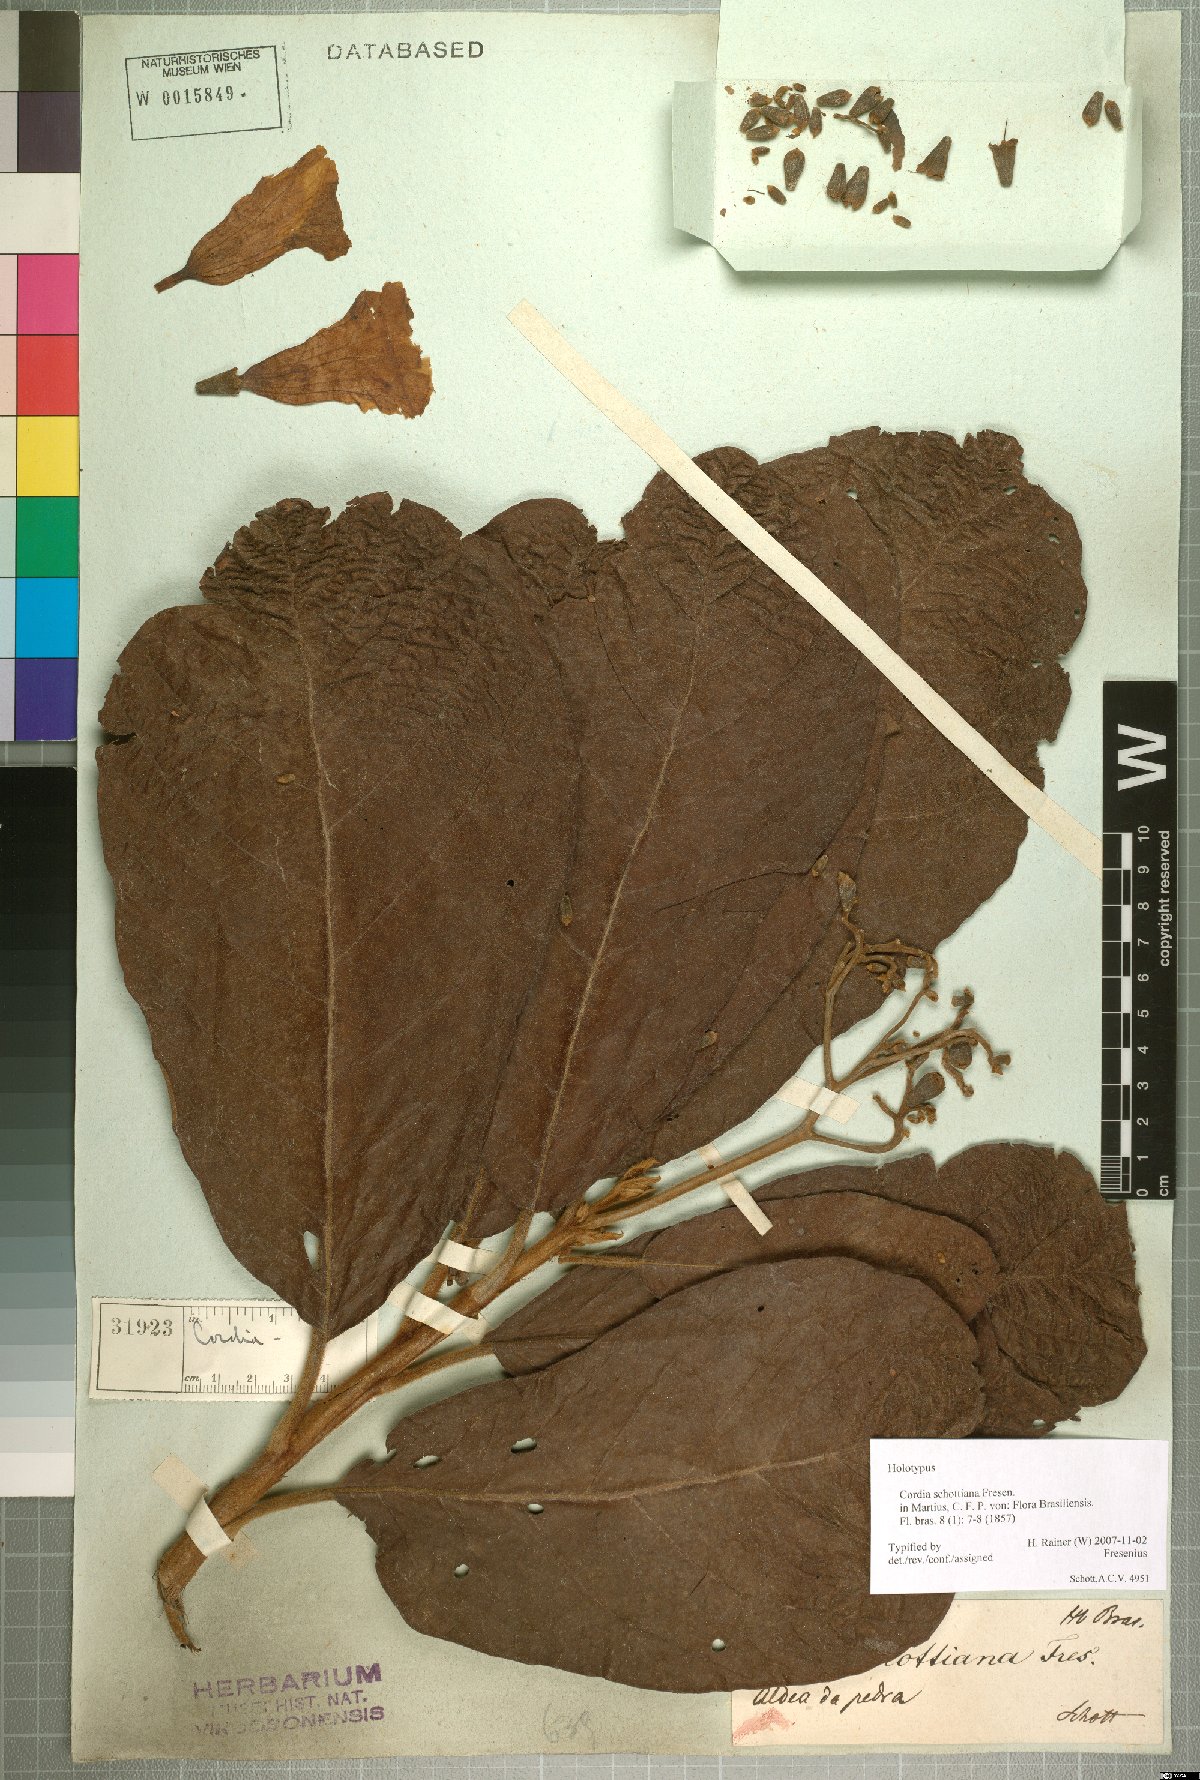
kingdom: Plantae
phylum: Tracheophyta
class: Magnoliopsida
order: Boraginales
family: Cordiaceae
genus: Cordia
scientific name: Cordia schottiana
